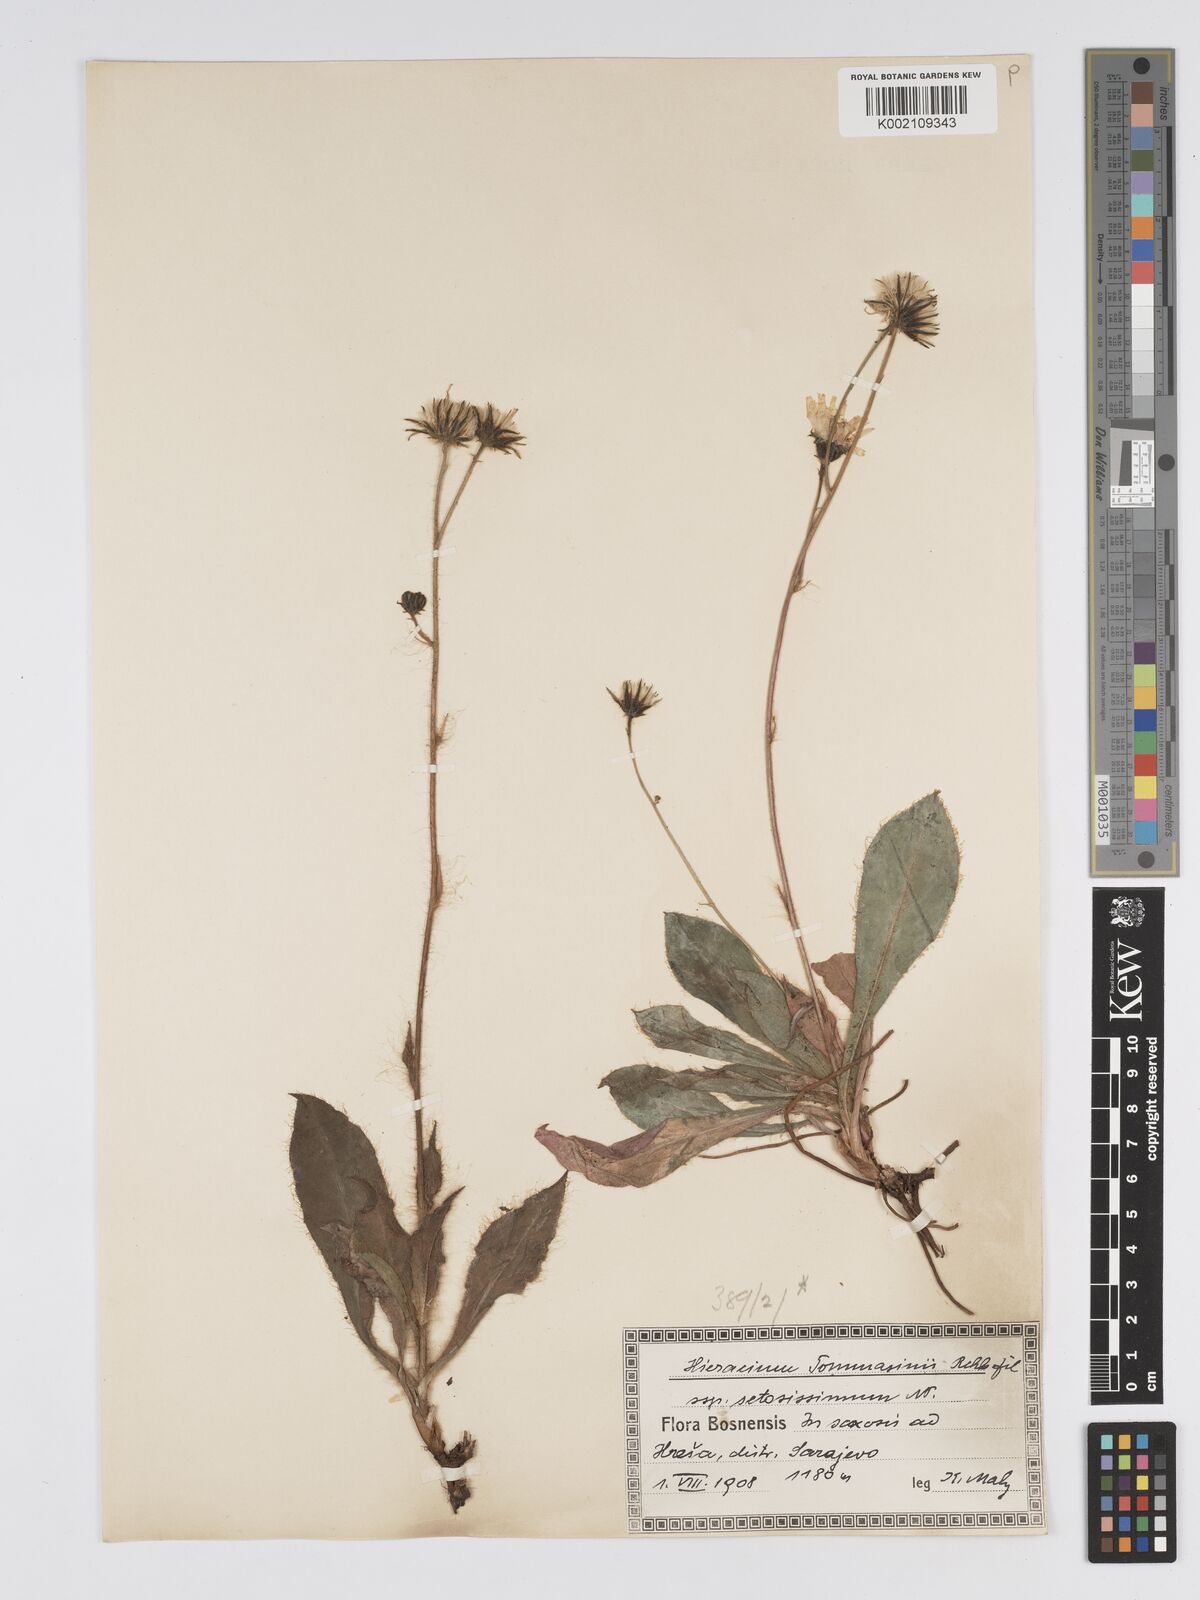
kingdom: Plantae
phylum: Tracheophyta
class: Magnoliopsida
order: Asterales
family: Asteraceae
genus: Hieracium
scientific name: Hieracium tommasinianum
